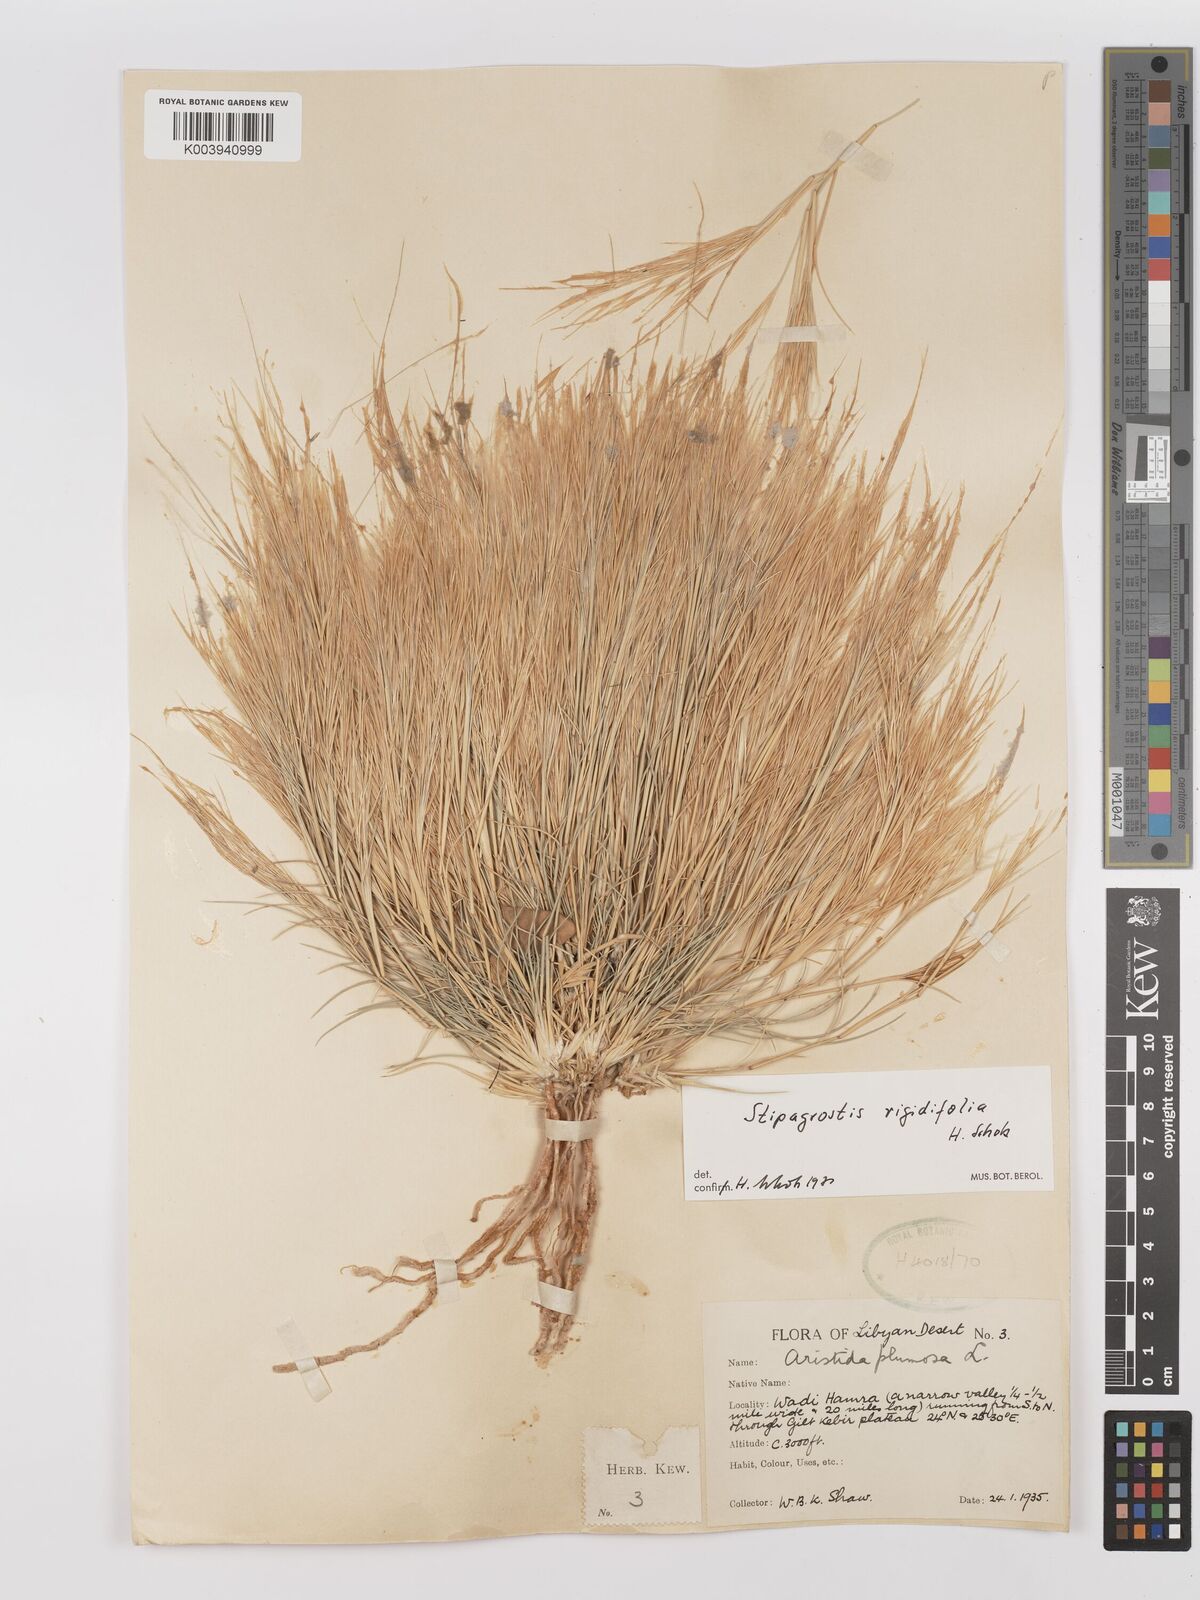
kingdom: Plantae
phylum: Tracheophyta
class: Liliopsida
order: Poales
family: Poaceae
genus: Stipagrostis
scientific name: Stipagrostis rigidifolia
